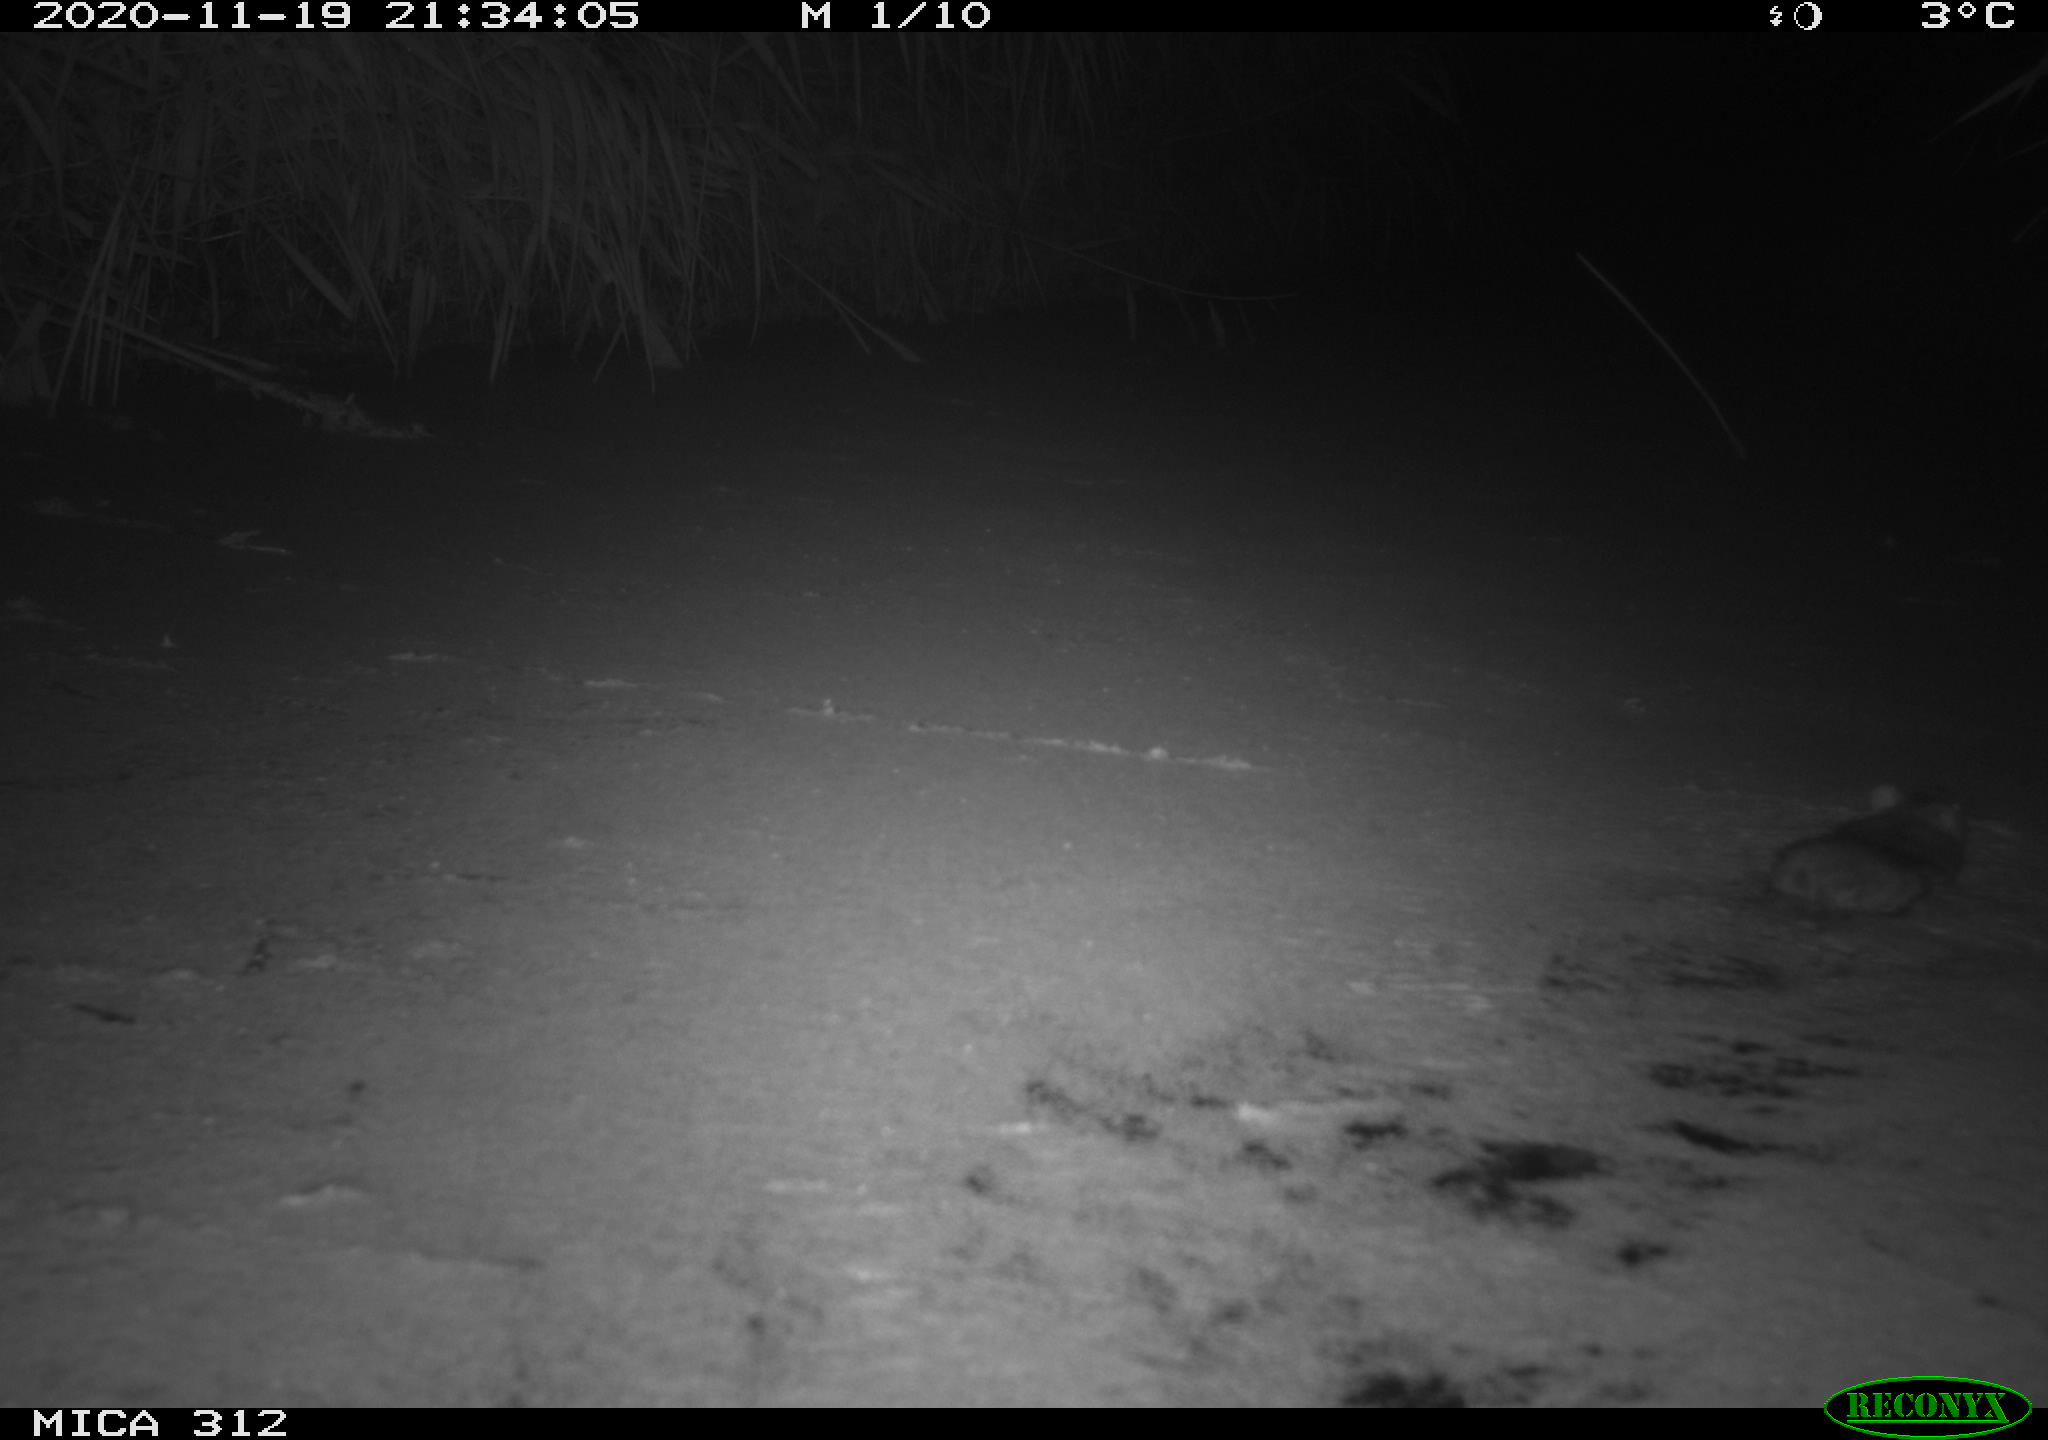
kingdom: Animalia
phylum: Chordata
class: Mammalia
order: Rodentia
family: Muridae
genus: Rattus
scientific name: Rattus norvegicus
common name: Brown rat
